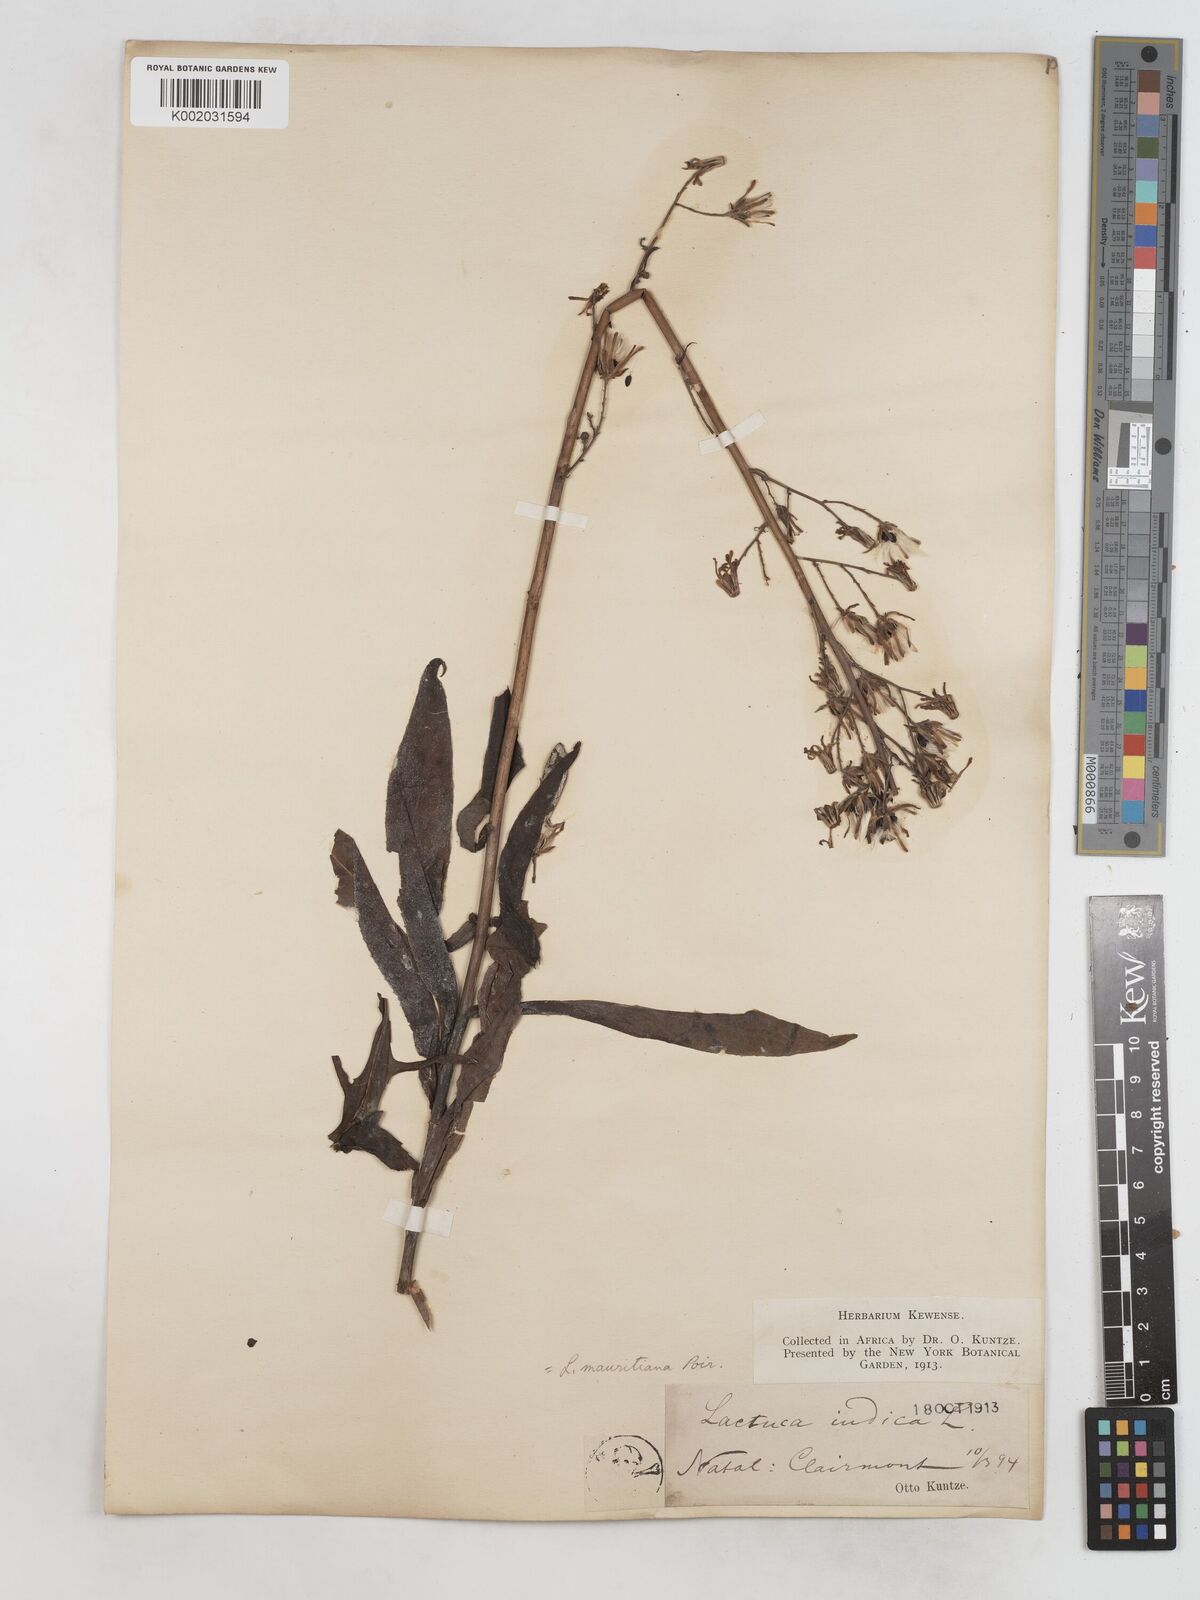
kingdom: Plantae
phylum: Tracheophyta
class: Magnoliopsida
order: Asterales
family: Asteraceae
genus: Lactuca
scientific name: Lactuca indica
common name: Wild lettuce
